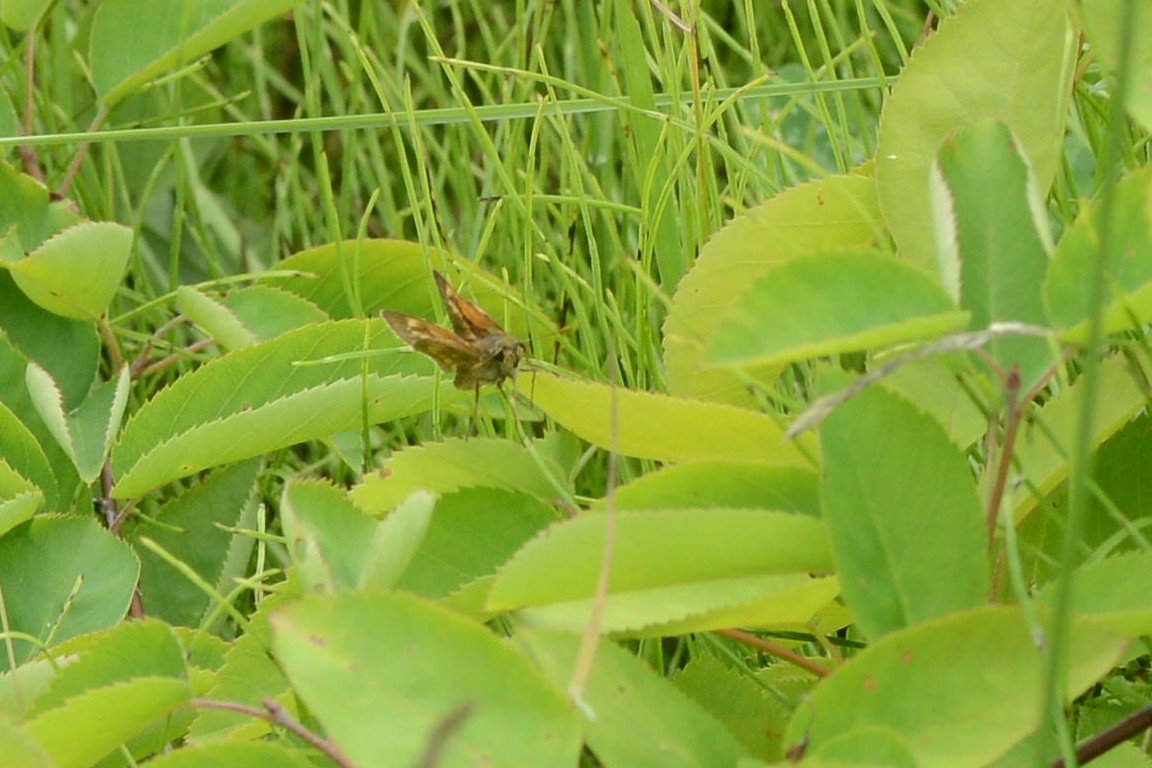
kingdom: Animalia
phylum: Arthropoda
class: Insecta
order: Lepidoptera
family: Hesperiidae
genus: Polites
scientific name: Polites
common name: Long Dash Skipper
